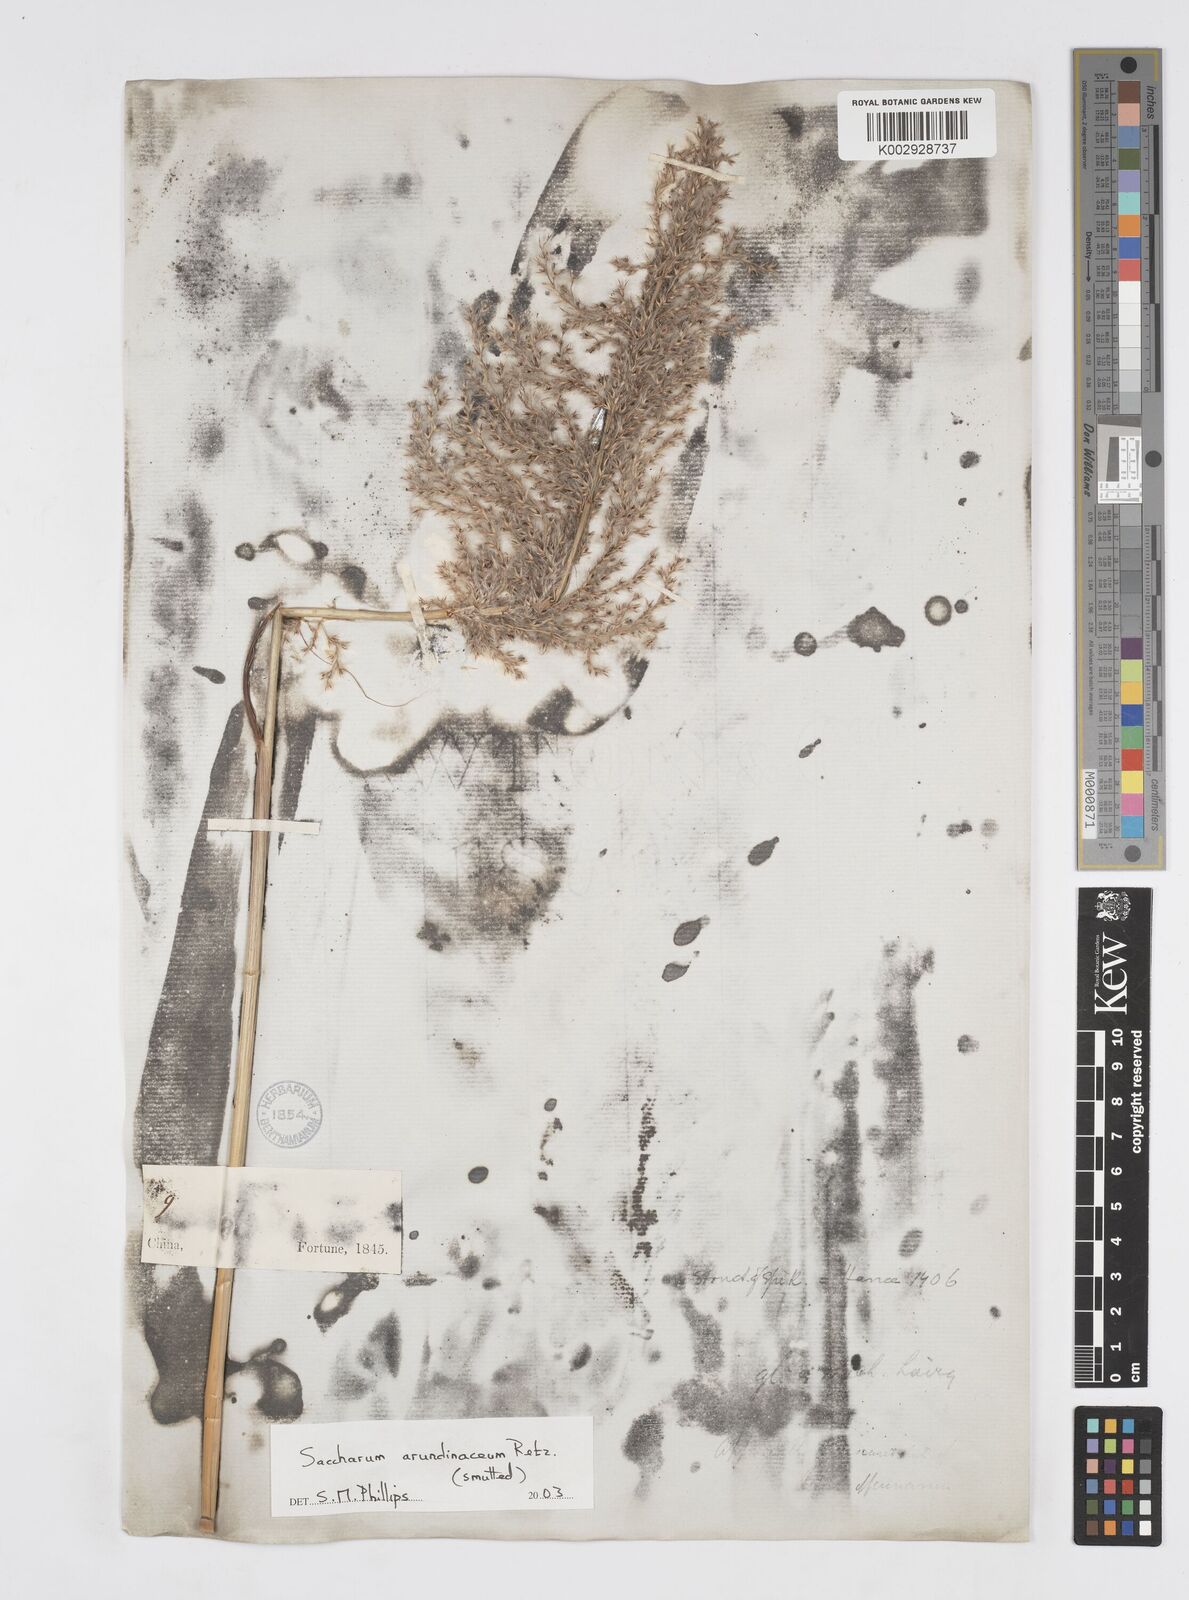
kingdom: Plantae
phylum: Tracheophyta
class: Liliopsida
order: Poales
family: Poaceae
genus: Tripidium
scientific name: Tripidium arundinaceum
